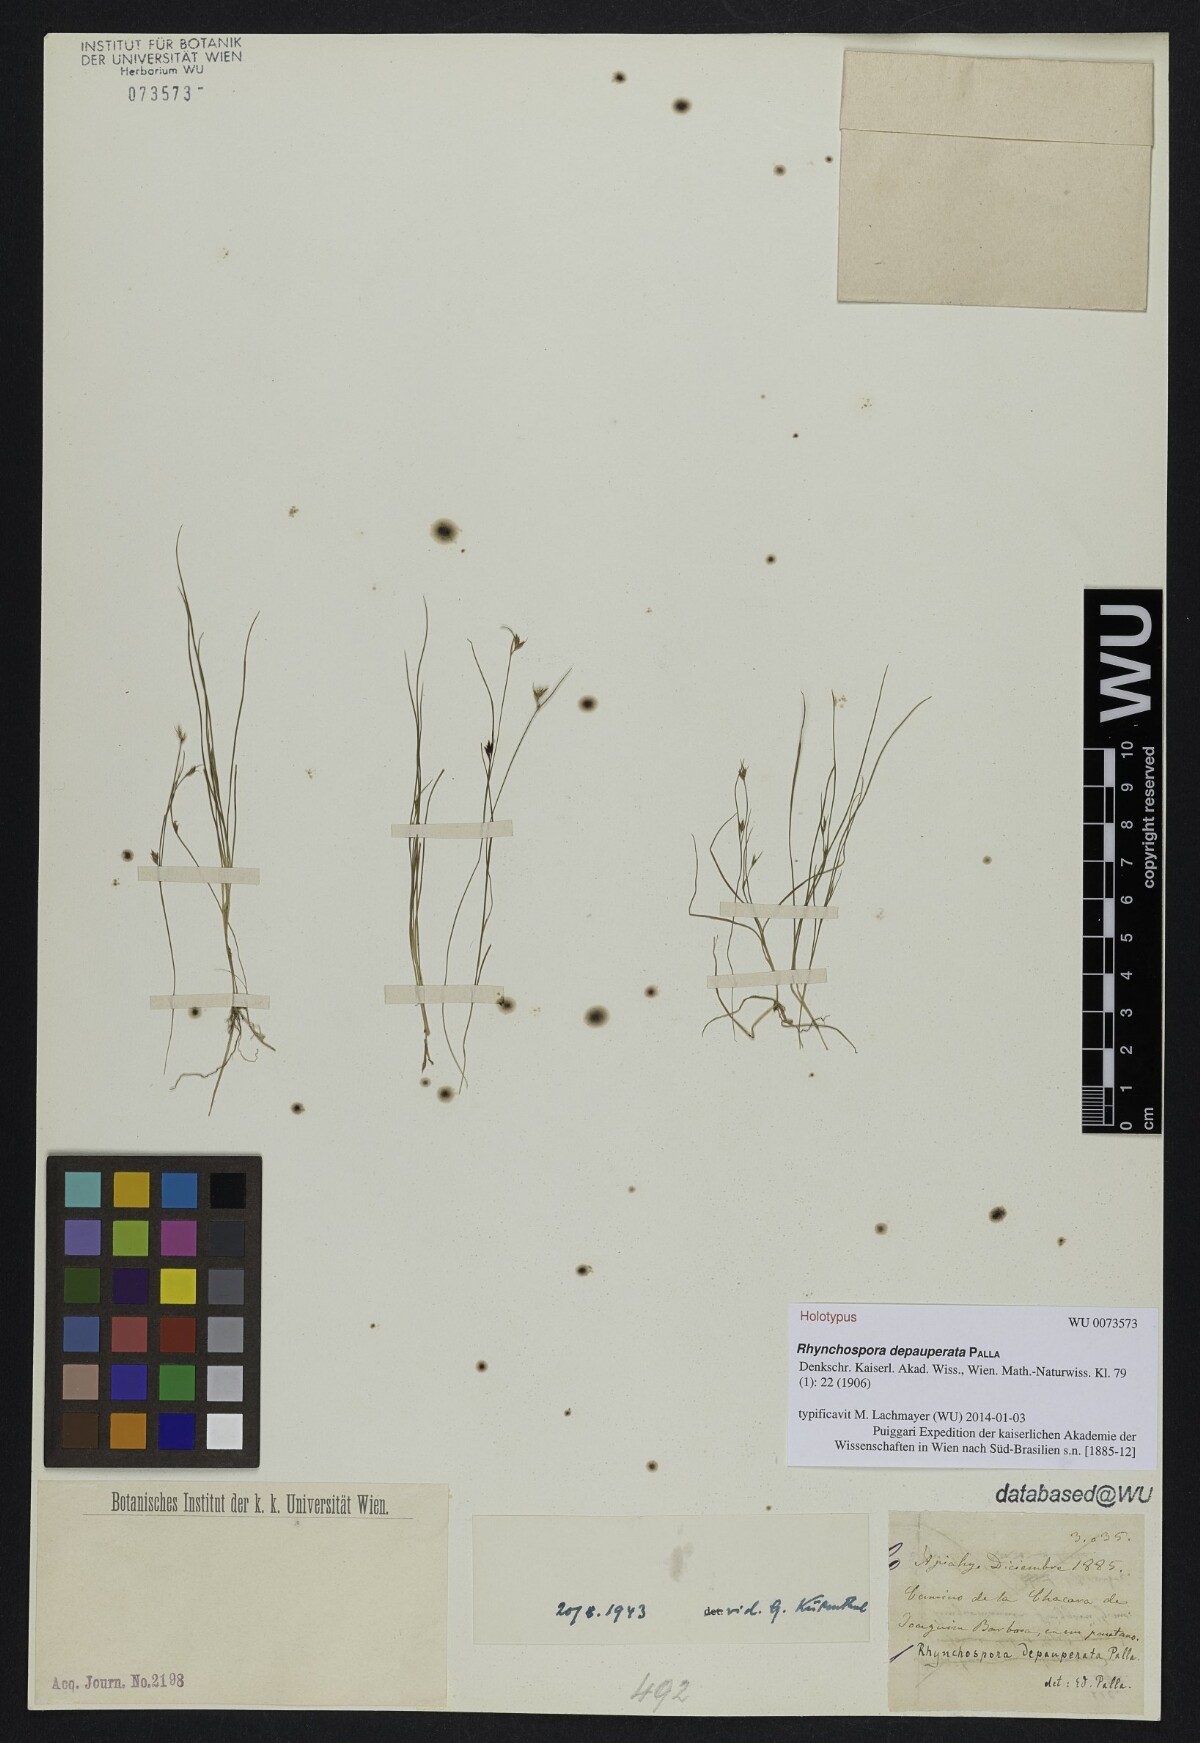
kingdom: Plantae
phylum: Tracheophyta
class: Liliopsida
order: Poales
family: Cyperaceae
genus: Rhynchospora
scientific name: Rhynchospora depauperata
